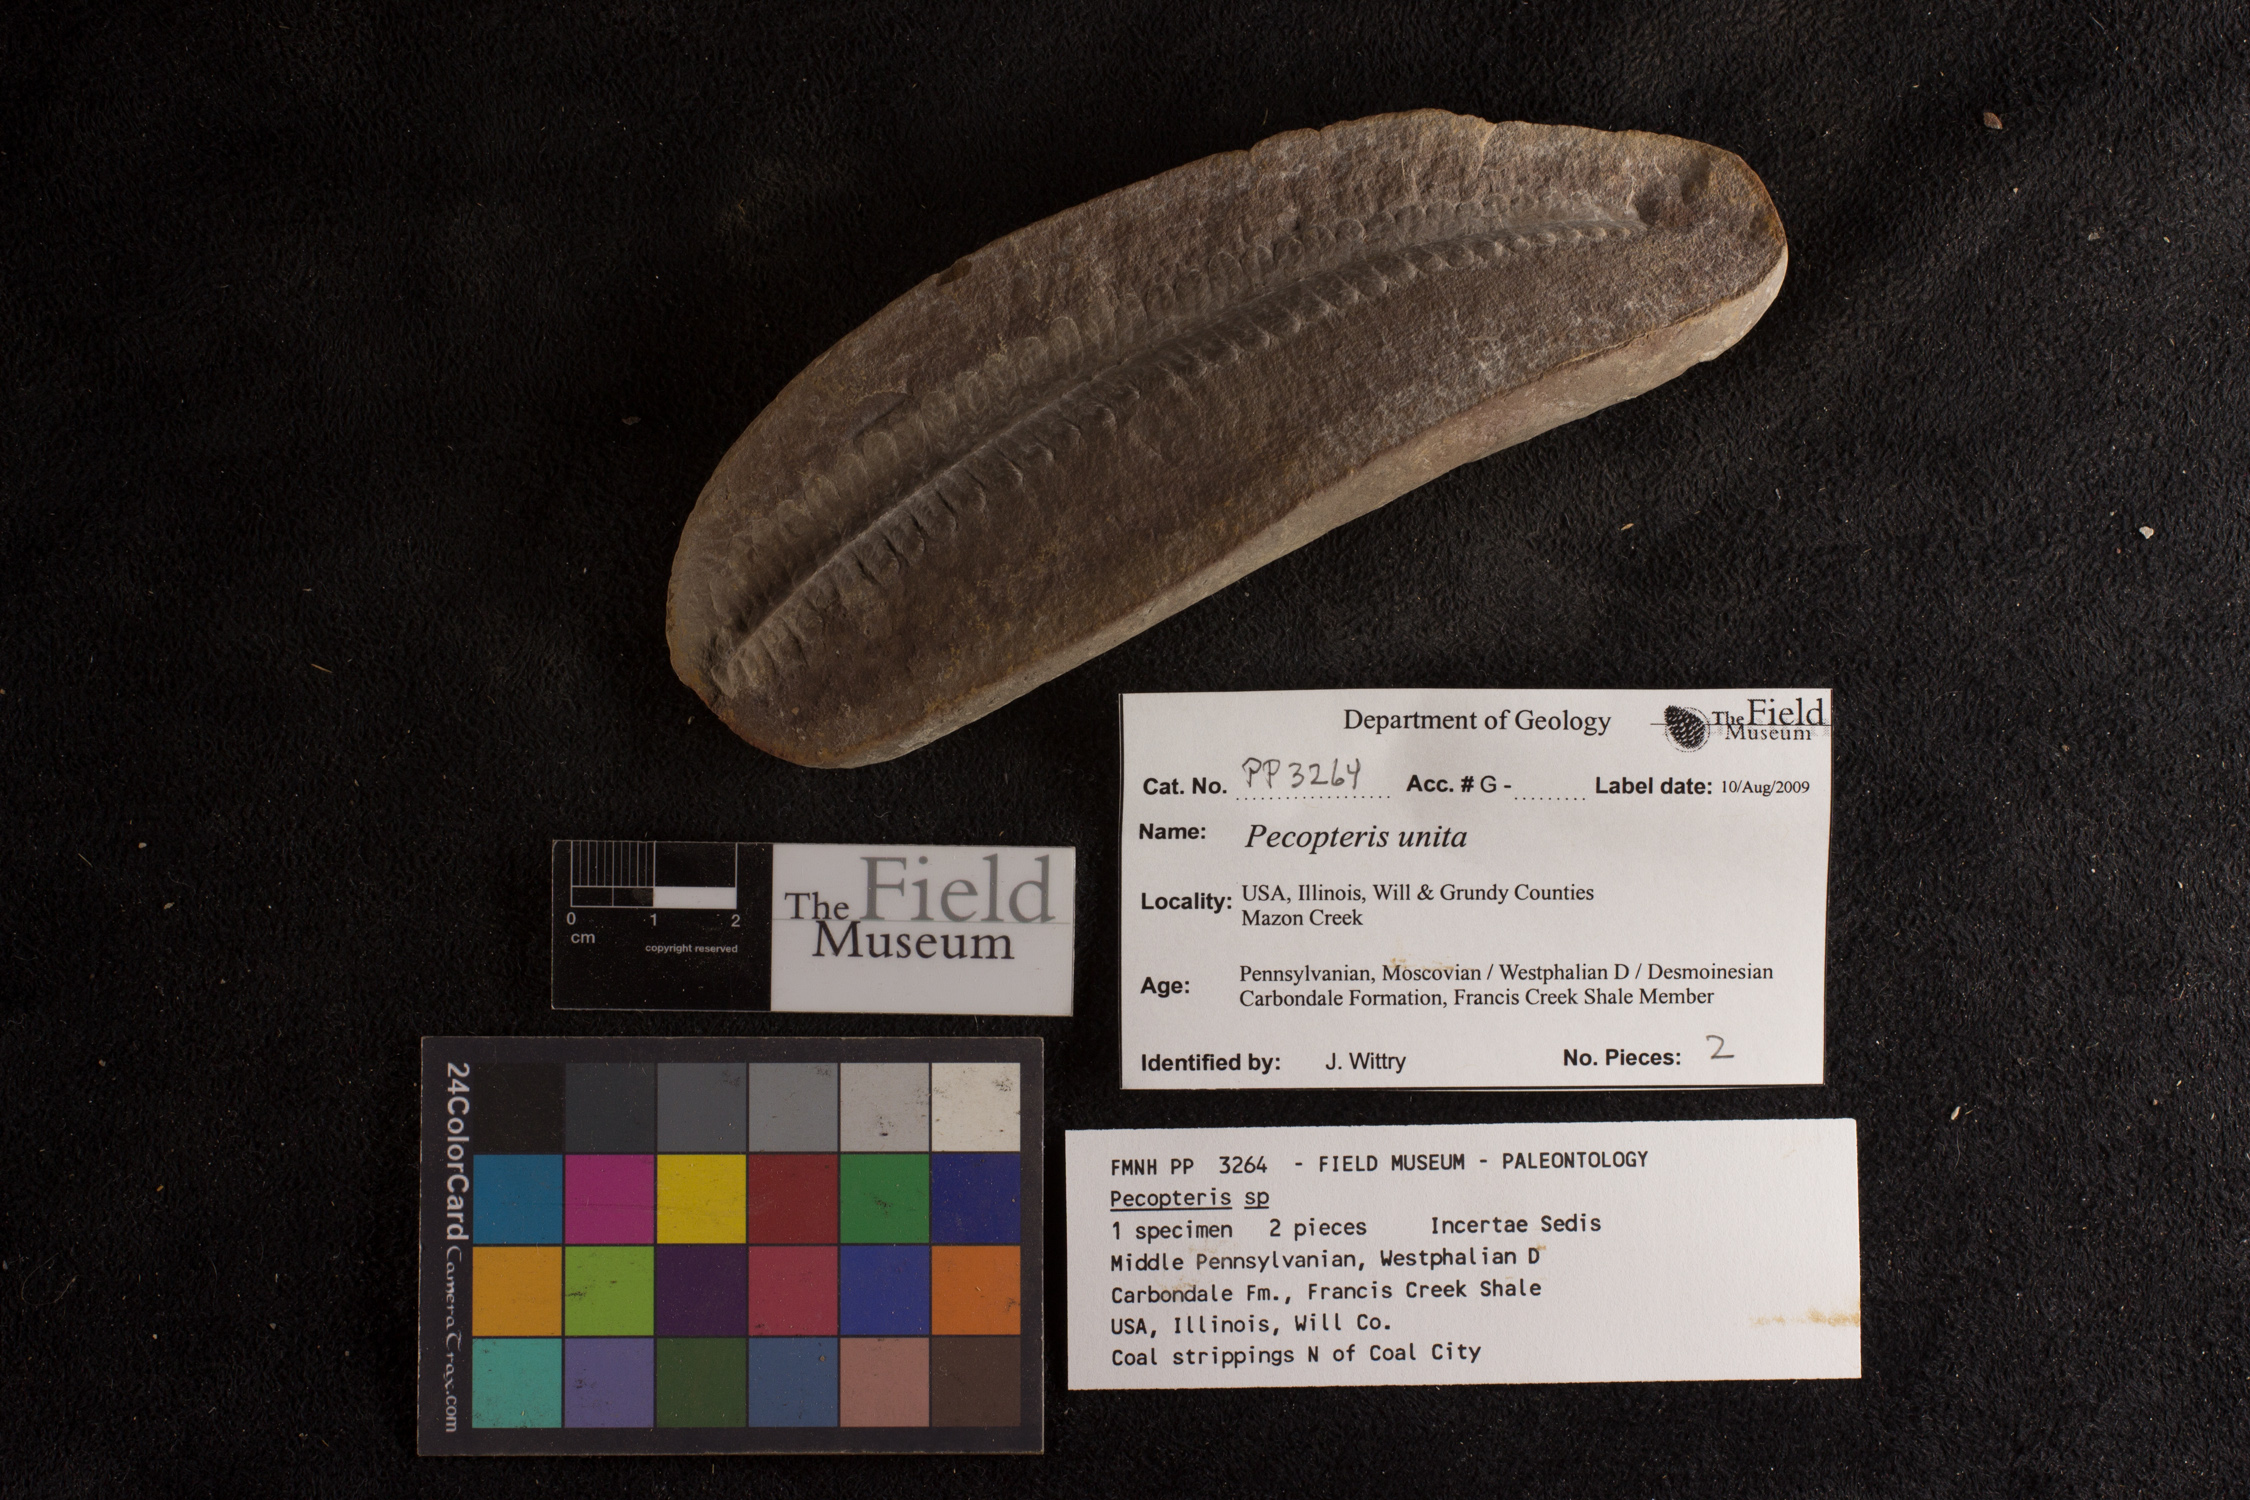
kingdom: Plantae
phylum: Tracheophyta
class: Polypodiopsida
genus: Diplazites
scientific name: Diplazites
